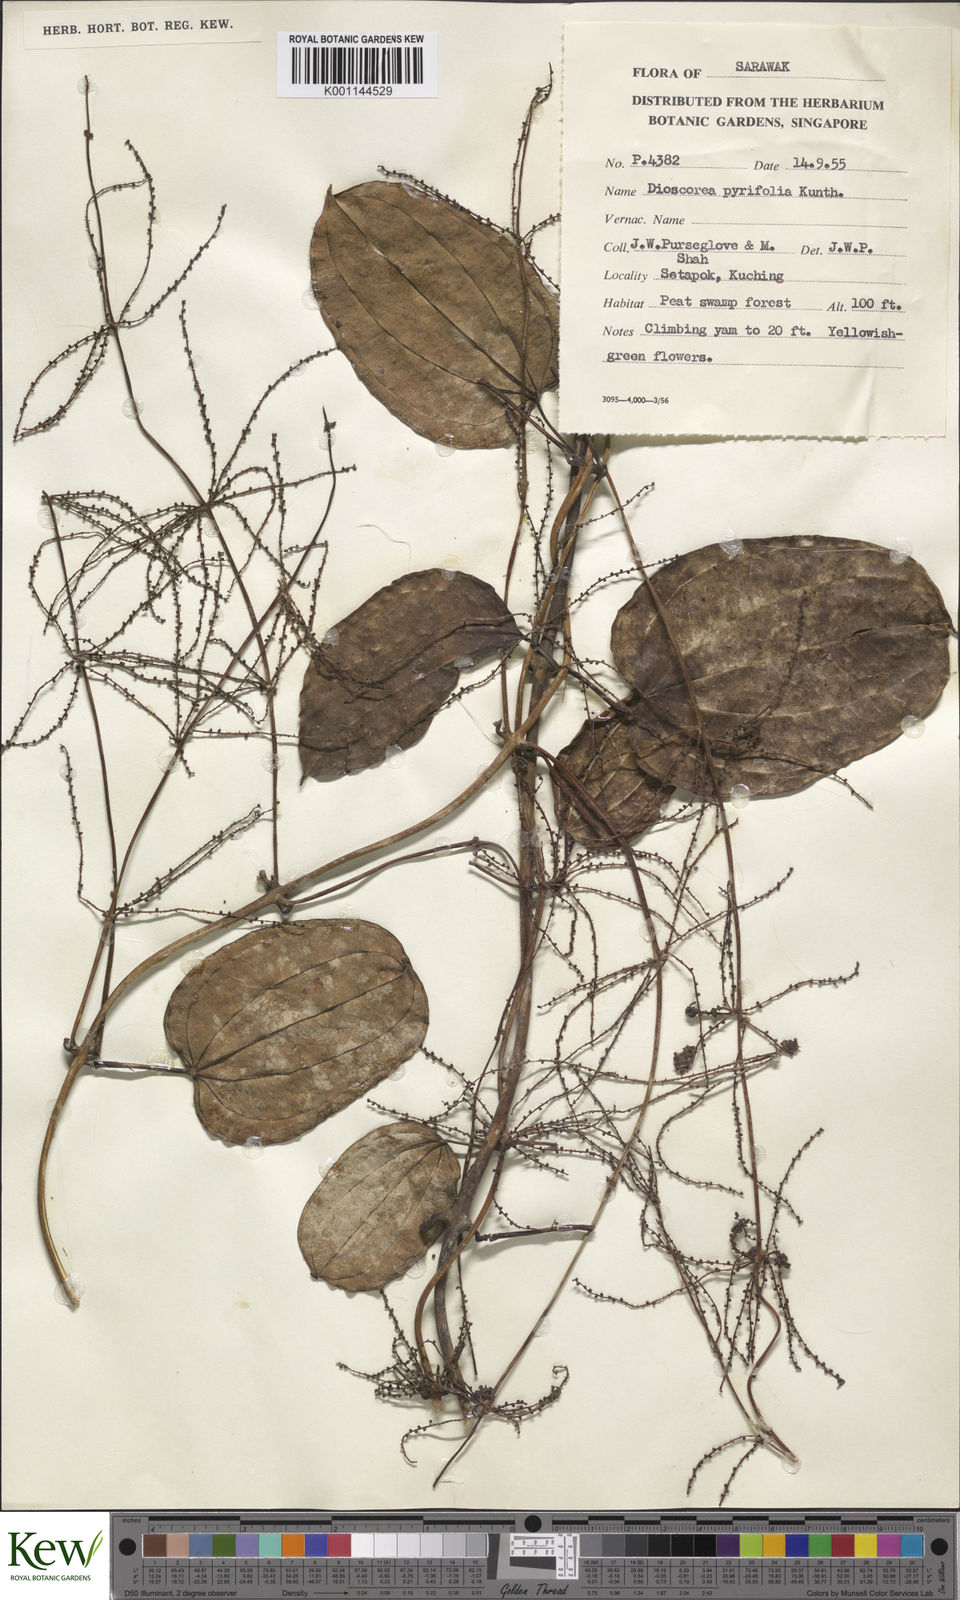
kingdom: Plantae
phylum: Tracheophyta
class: Liliopsida
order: Dioscoreales
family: Dioscoreaceae
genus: Dioscorea
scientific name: Dioscorea pyrifolia
